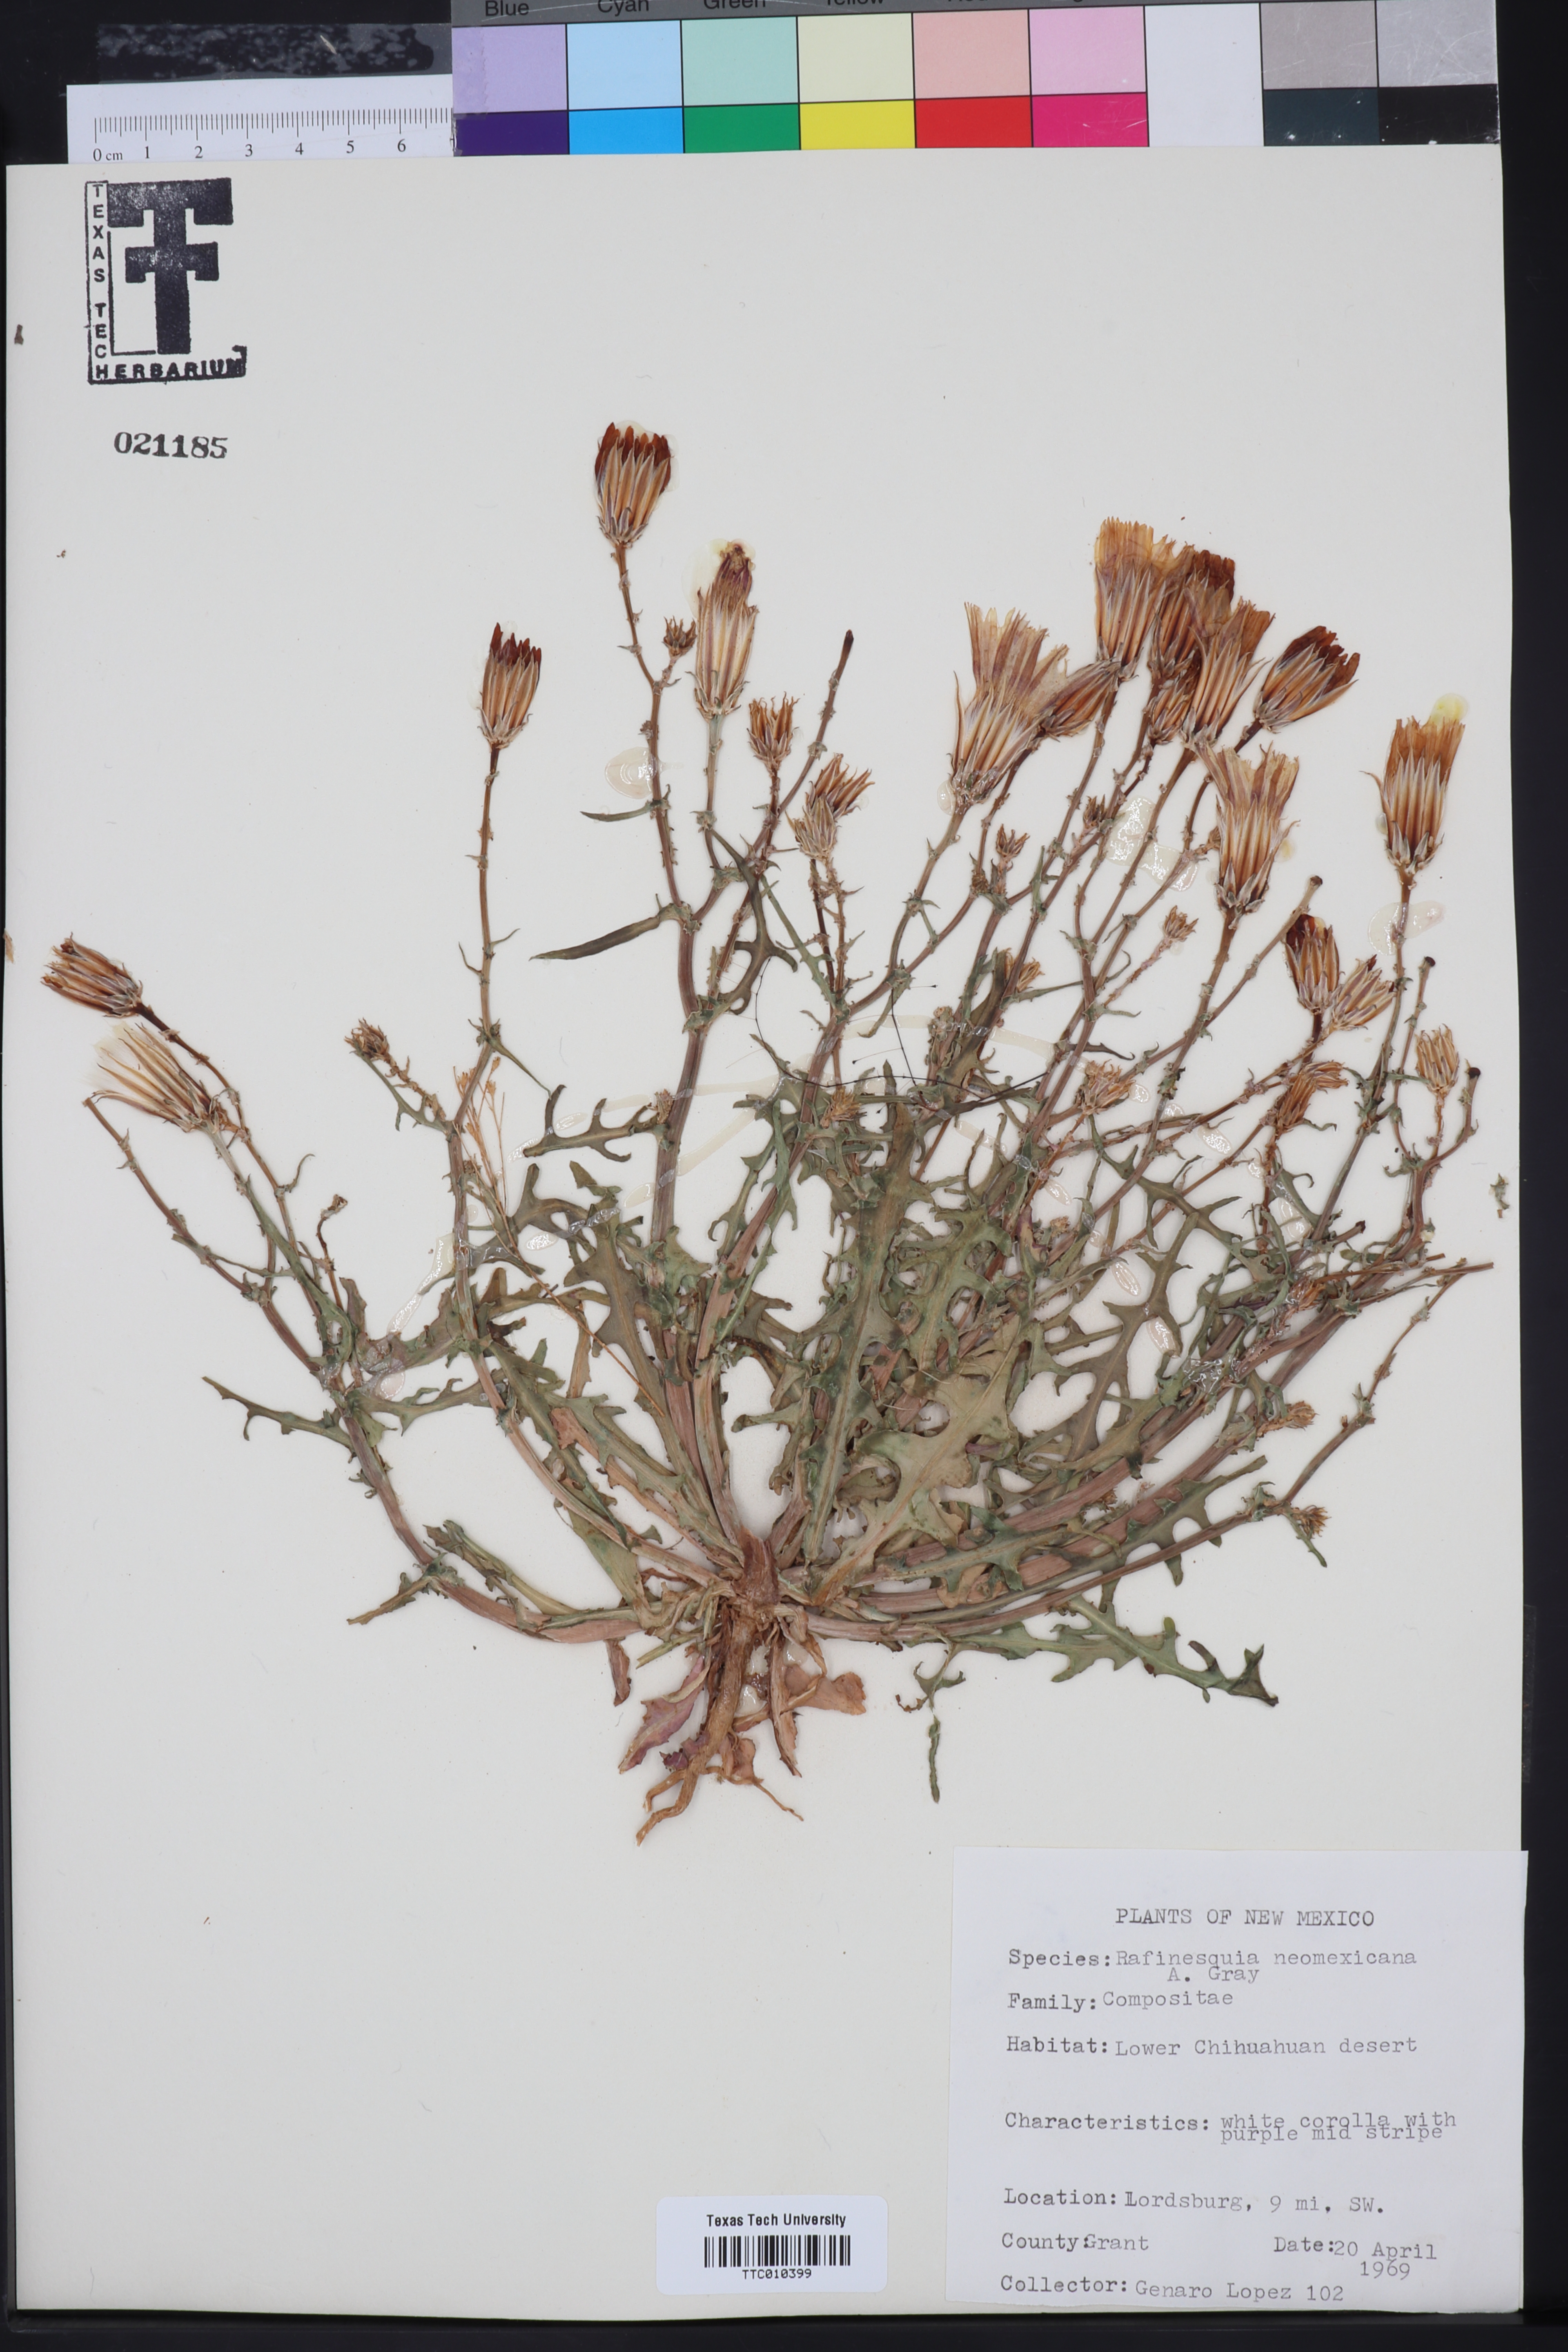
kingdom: Plantae
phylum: Tracheophyta
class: Magnoliopsida
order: Asterales
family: Asteraceae
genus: Rafinesquia
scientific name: Rafinesquia neomexicana
